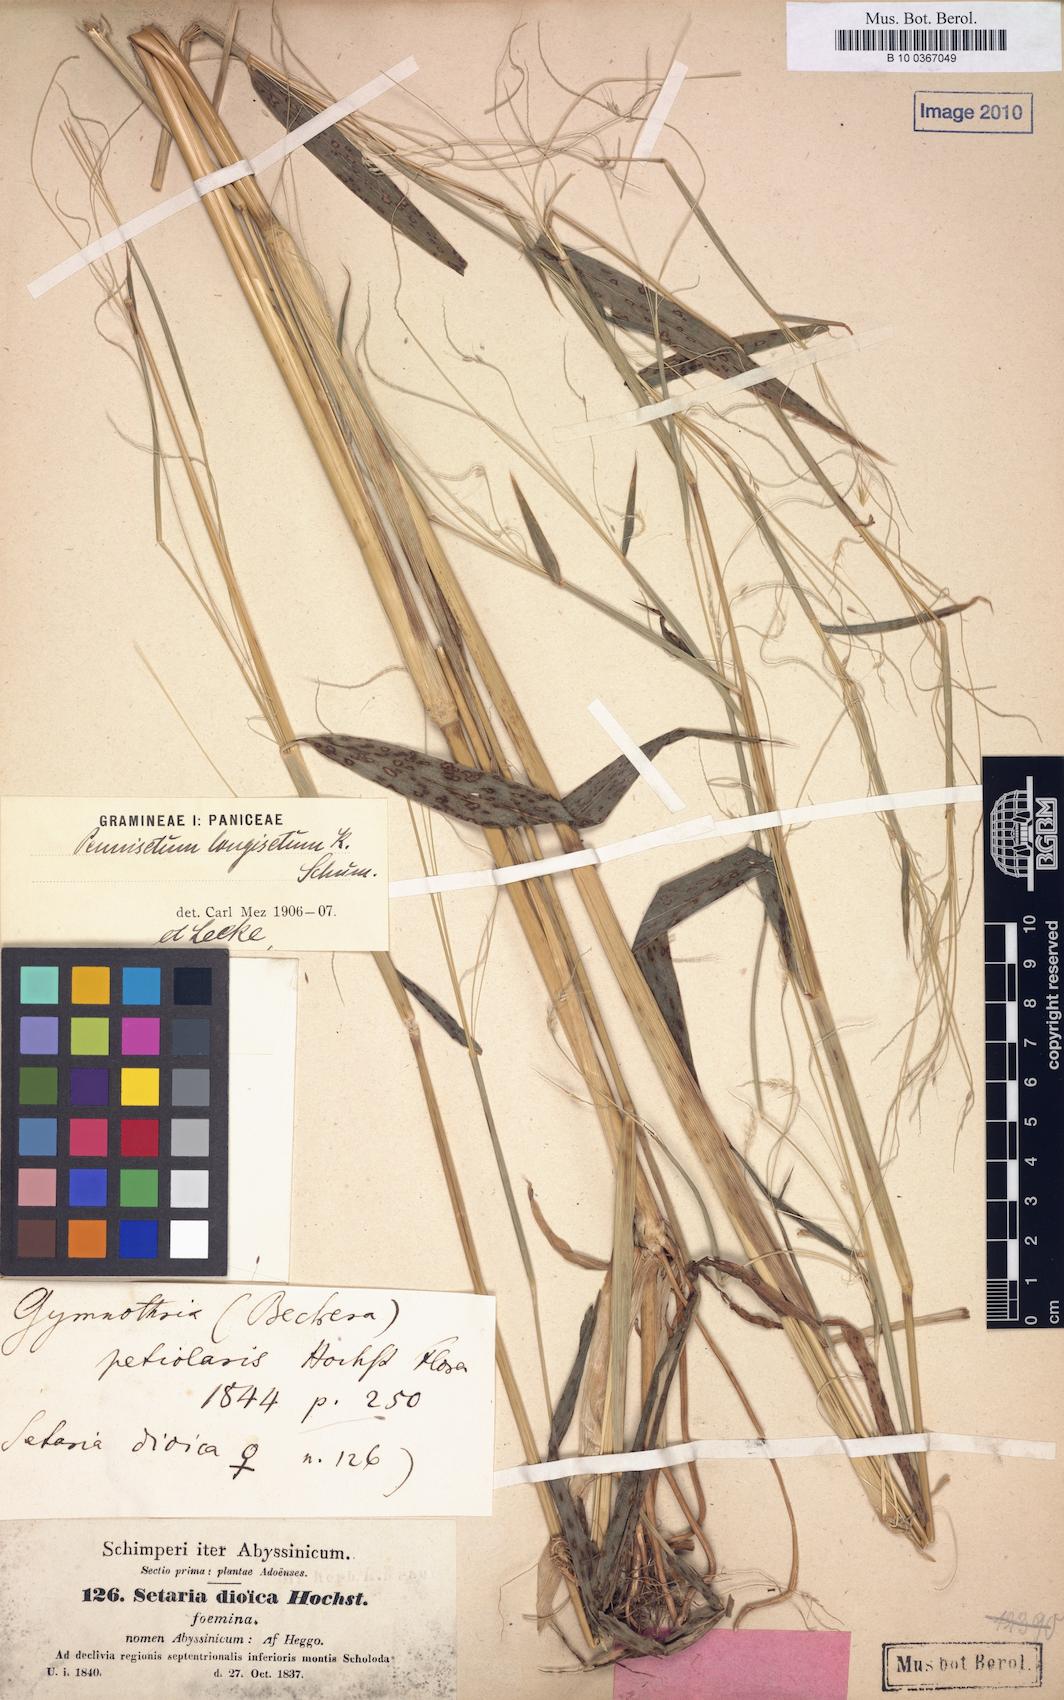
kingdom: Plantae
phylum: Tracheophyta
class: Liliopsida
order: Poales
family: Poaceae
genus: Cenchrus
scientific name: Cenchrus petiolaris
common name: Grass
